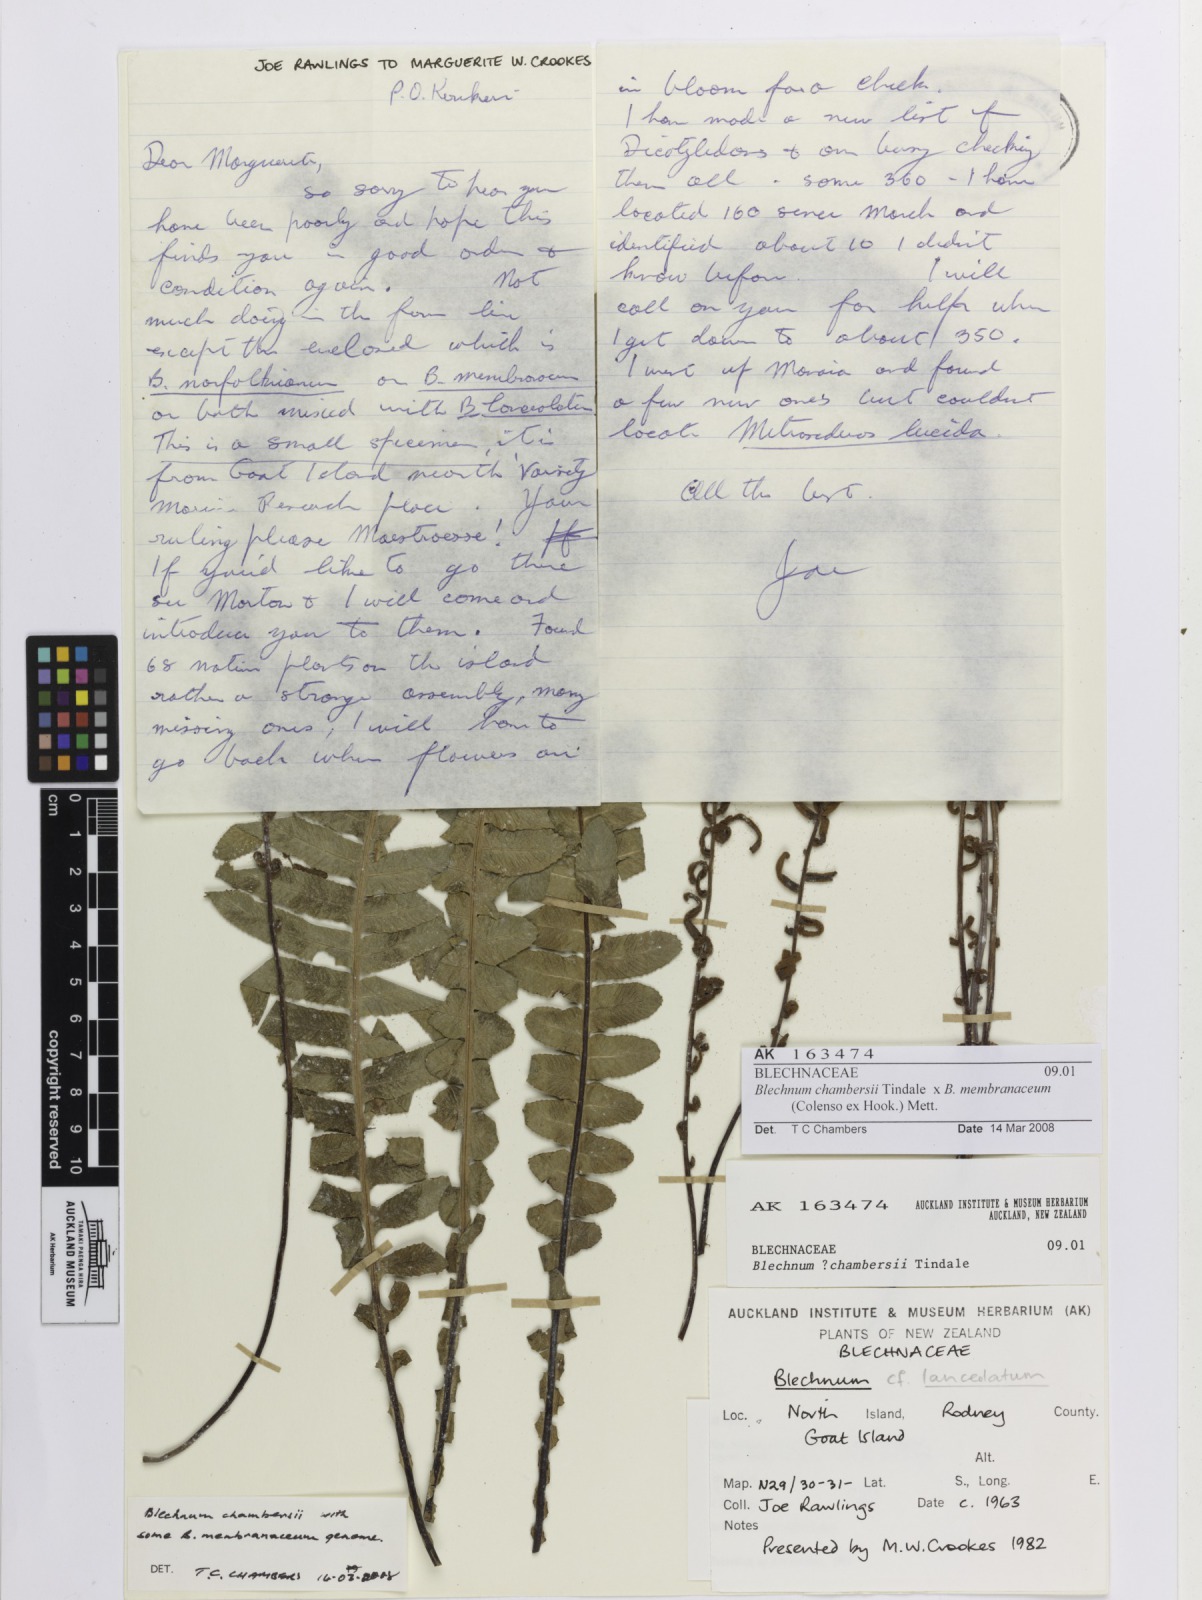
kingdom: Plantae
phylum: Tracheophyta
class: Polypodiopsida
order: Polypodiales
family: Blechnaceae
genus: Blechnum
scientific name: Blechnum
